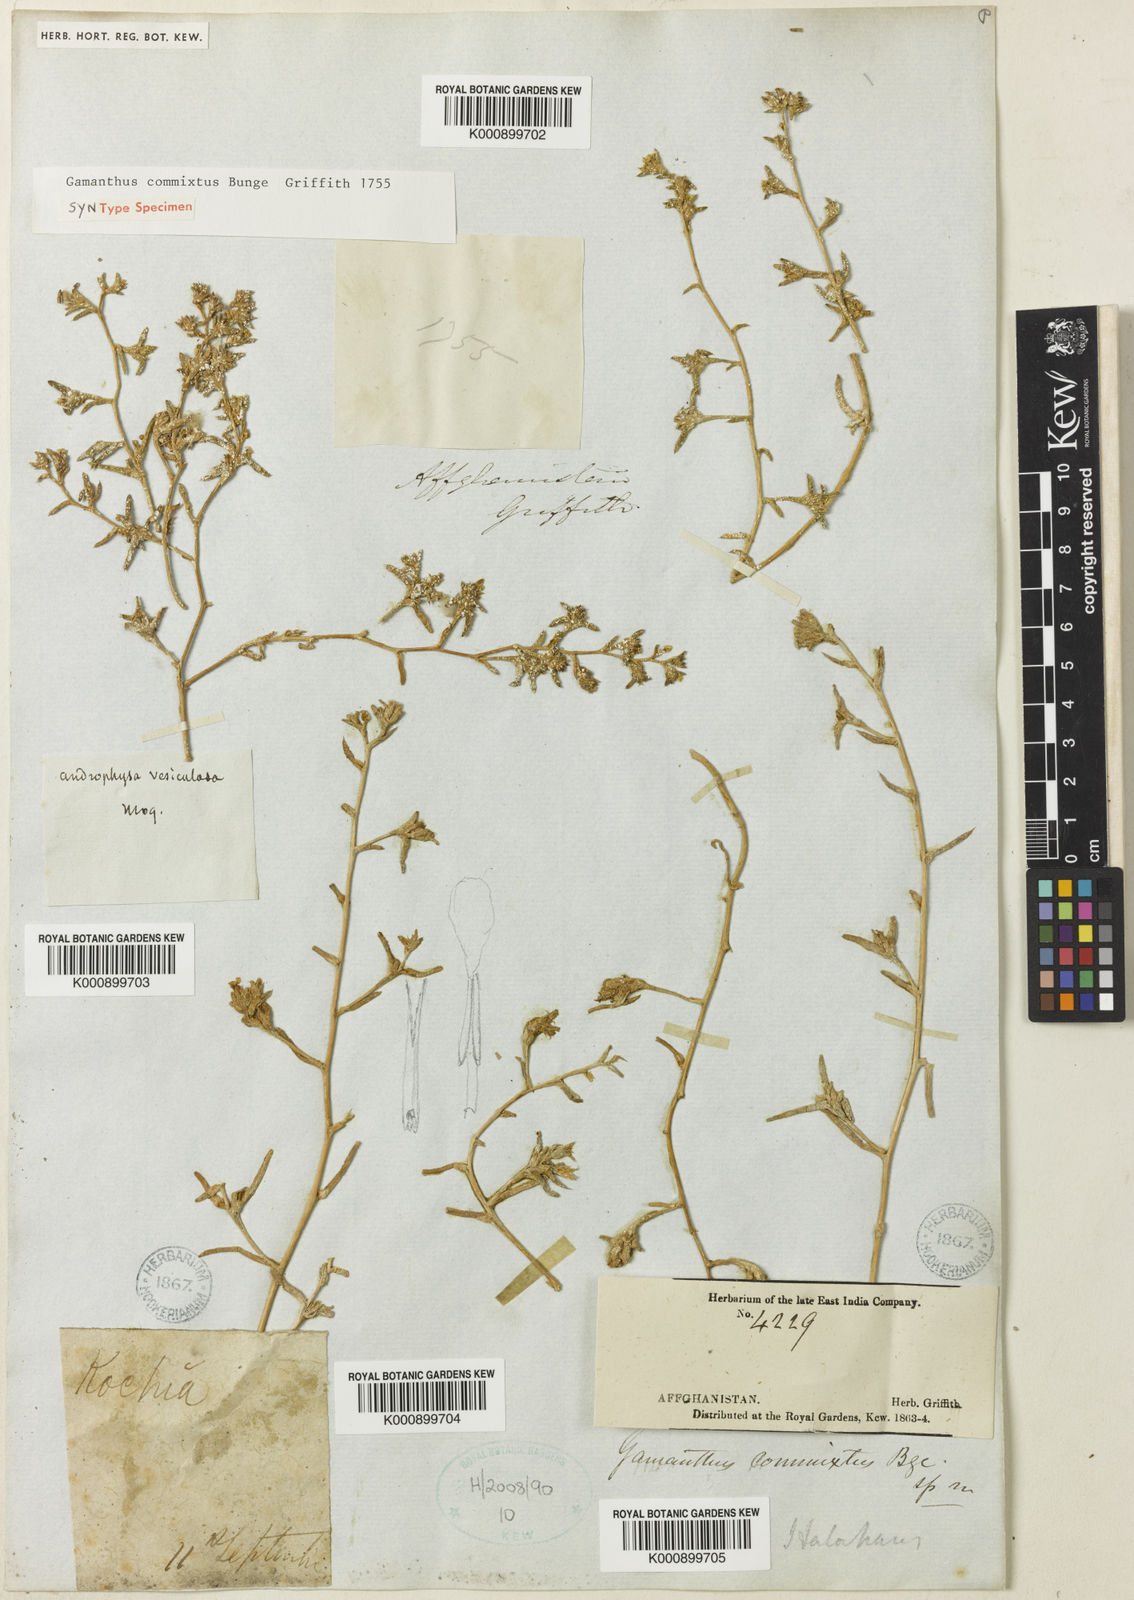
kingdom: Plantae
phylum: Tracheophyta
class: Magnoliopsida
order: Caryophyllales
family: Amaranthaceae
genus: Halimocnemis
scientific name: Halimocnemis commixtus
